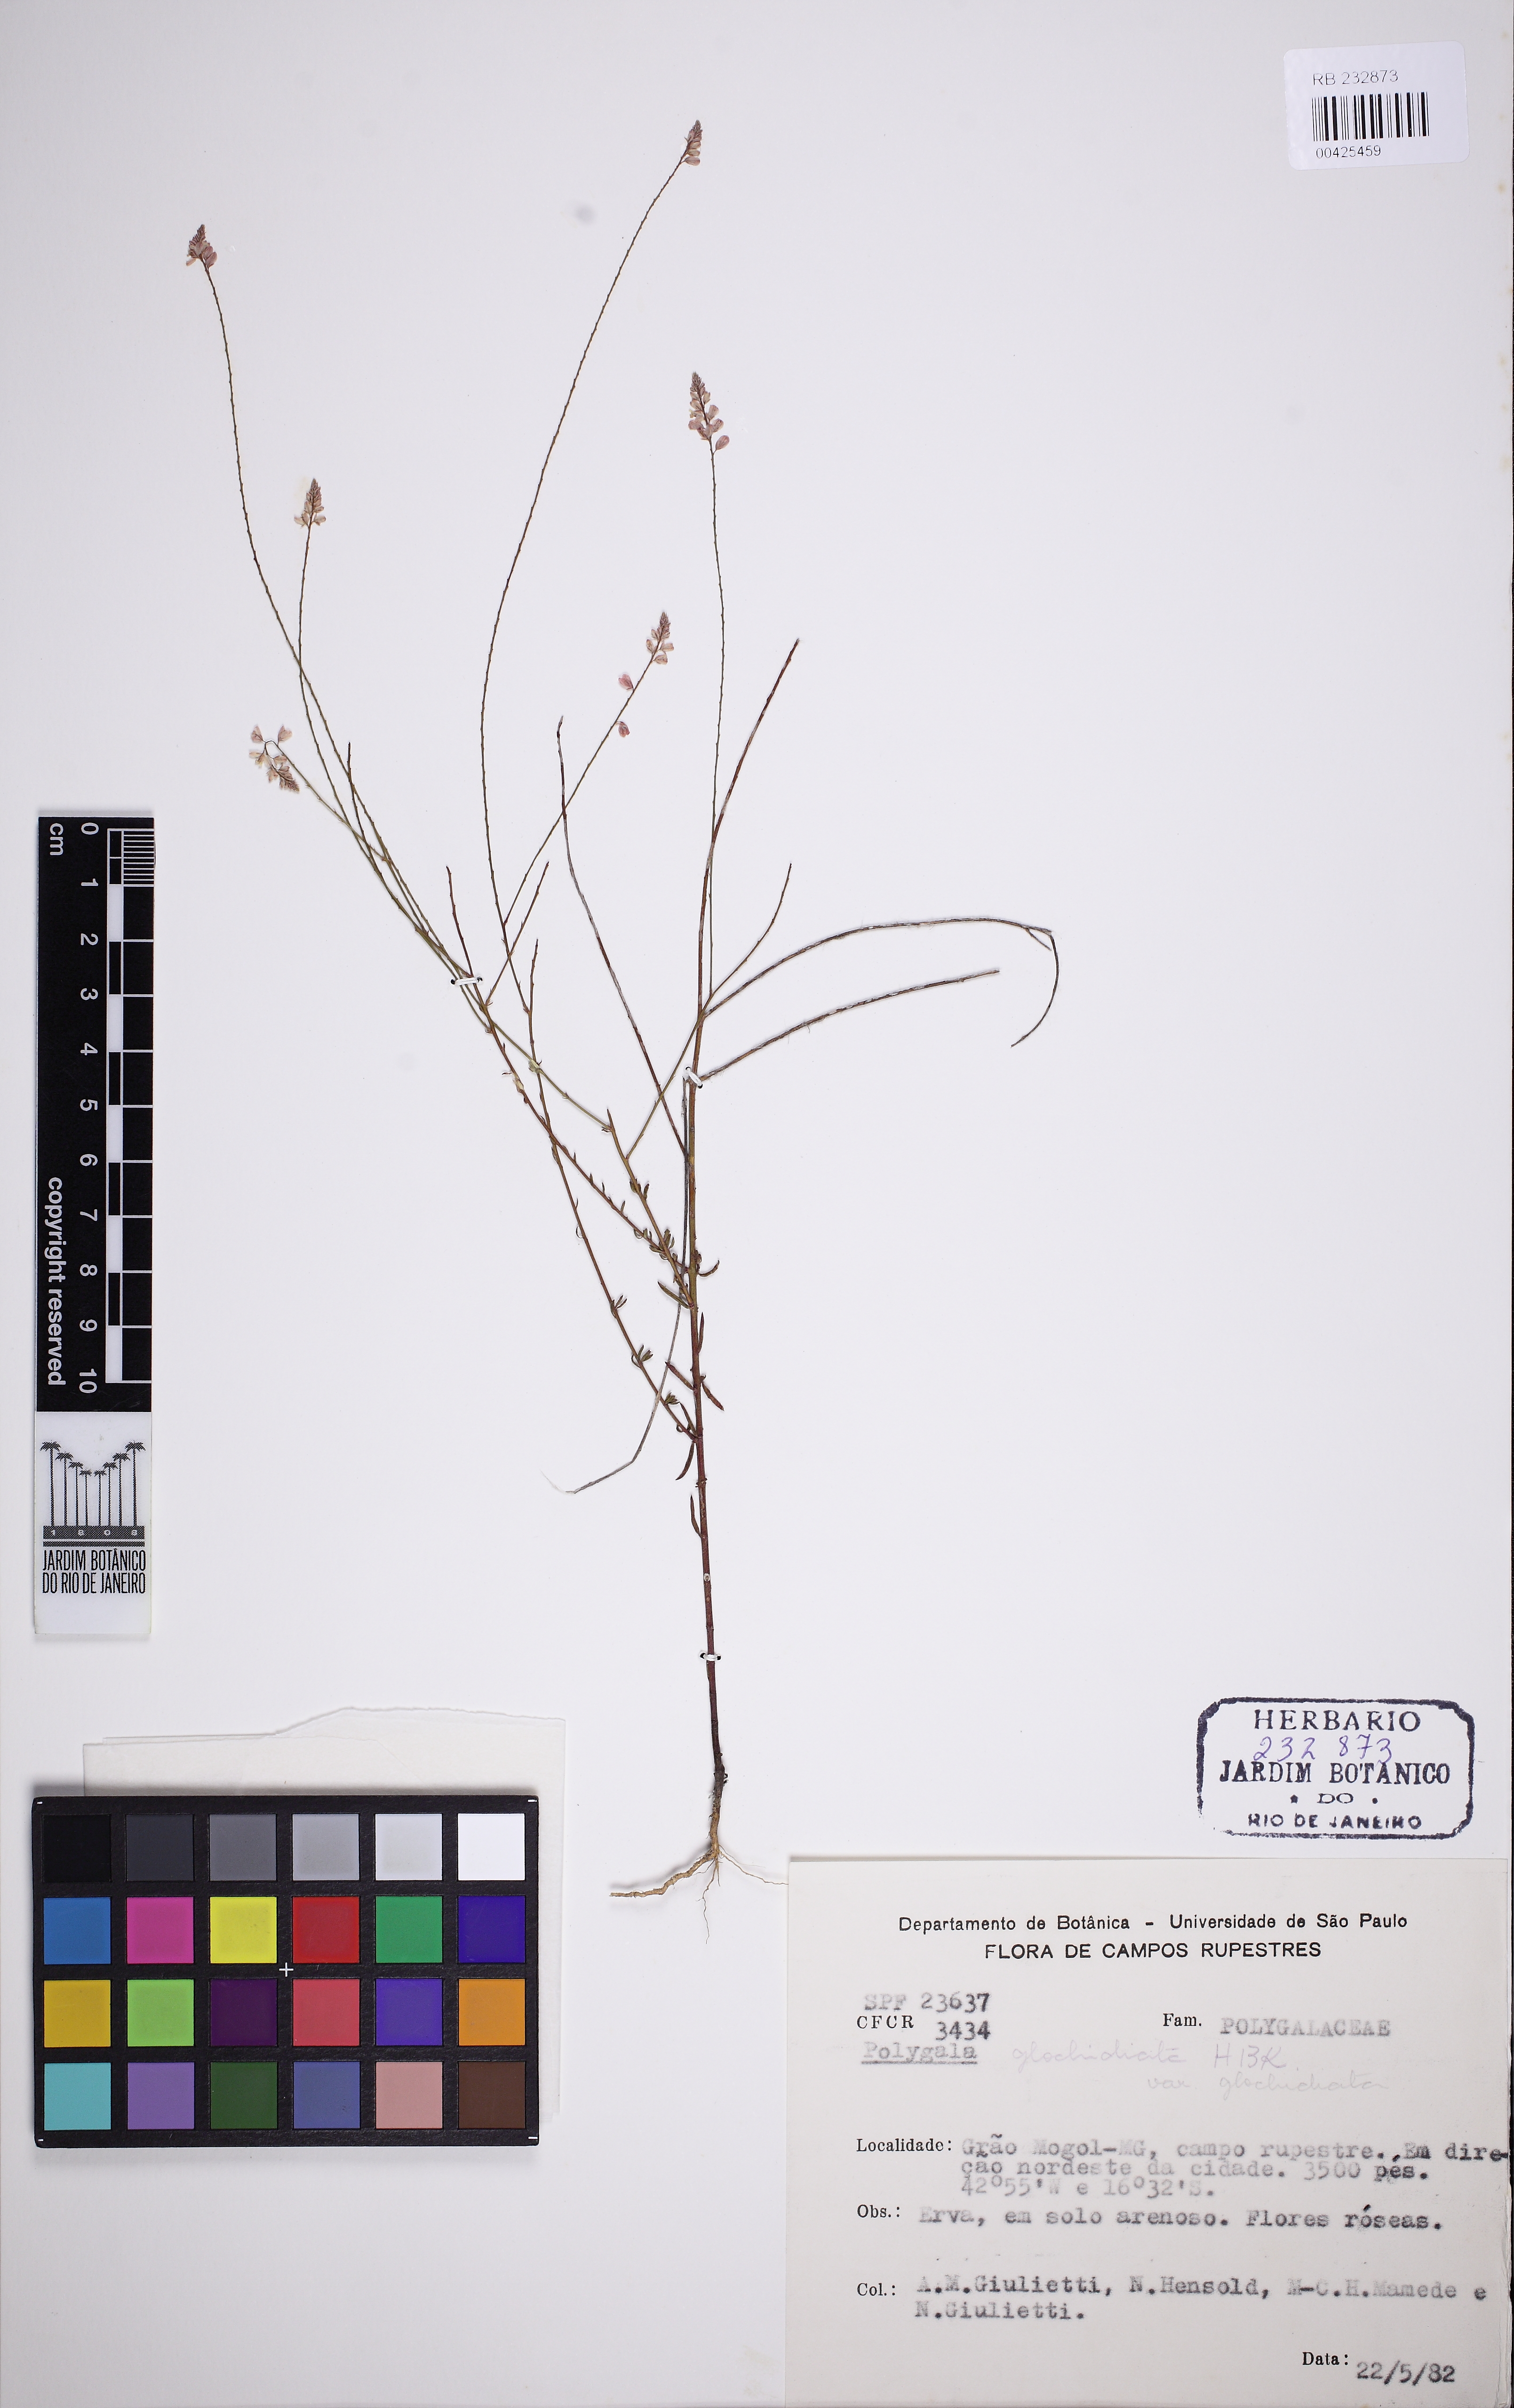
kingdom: Plantae
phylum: Tracheophyta
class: Magnoliopsida
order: Fabales
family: Polygalaceae
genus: Polygala
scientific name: Polygala glochidiata
